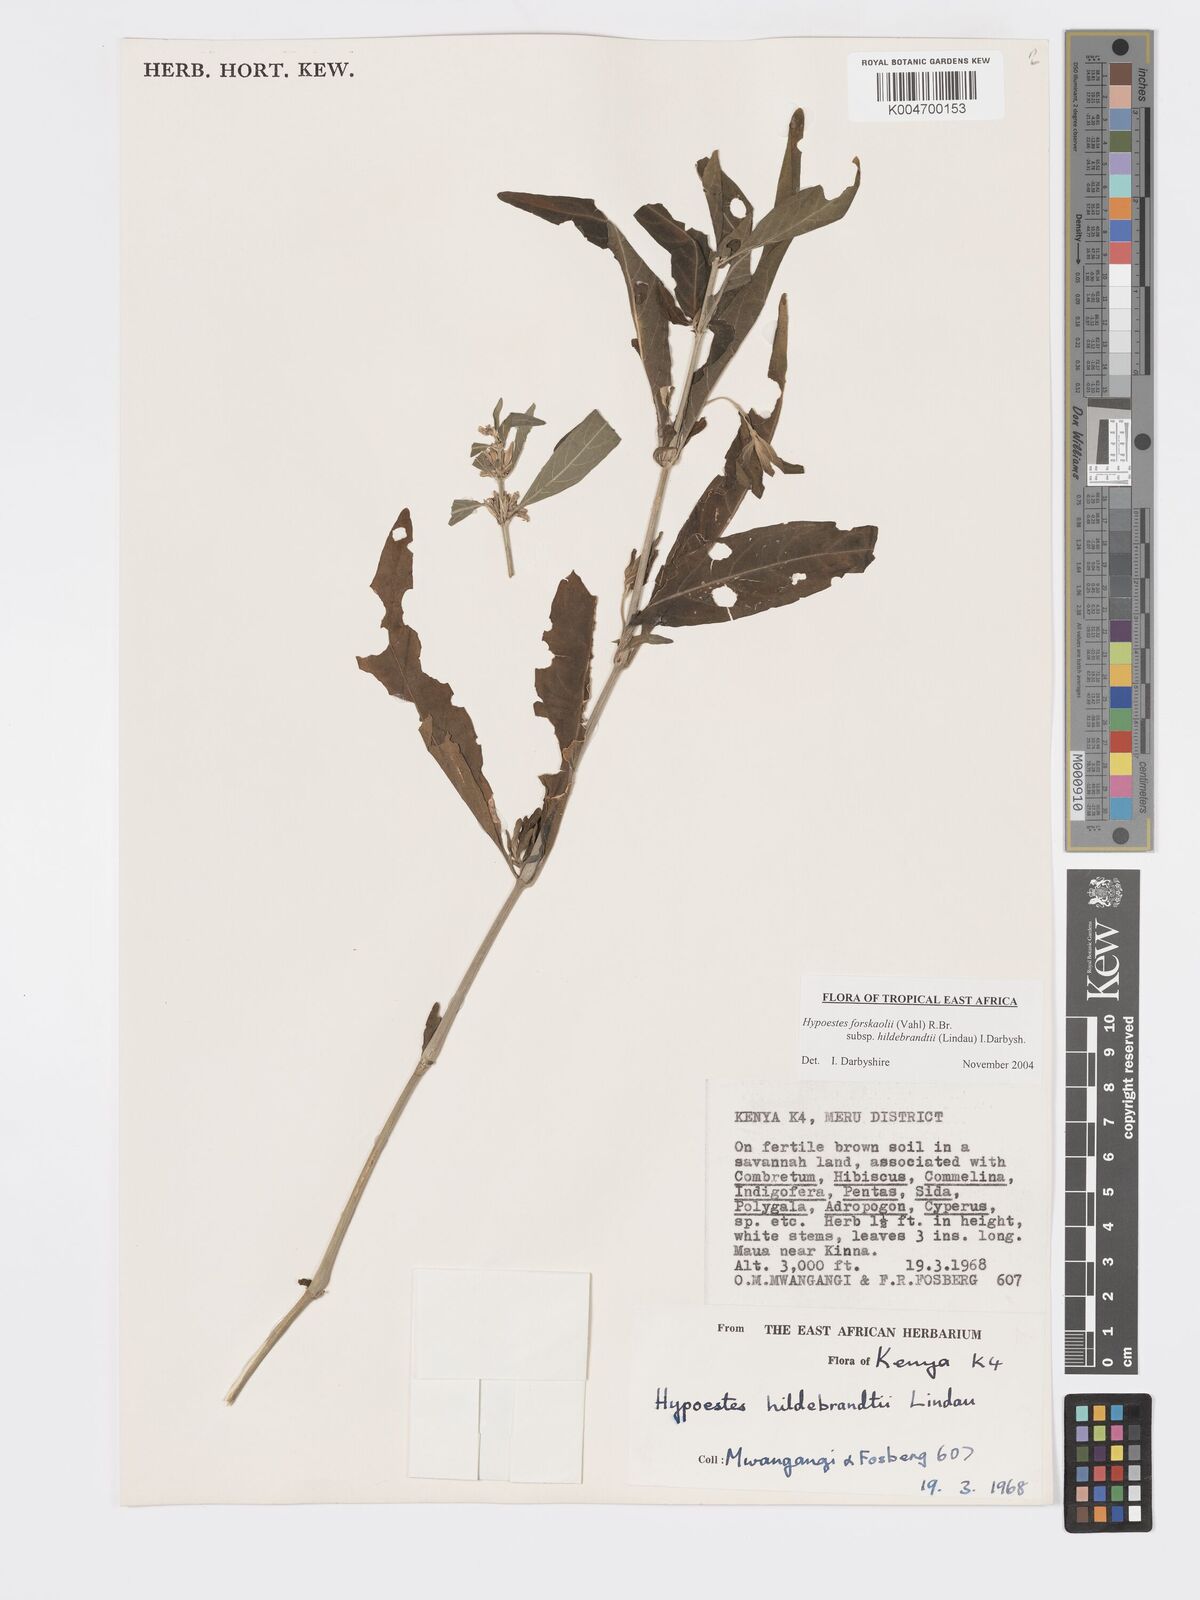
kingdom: Plantae
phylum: Tracheophyta
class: Magnoliopsida
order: Lamiales
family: Acanthaceae
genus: Hypoestes
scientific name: Hypoestes forskaolii
